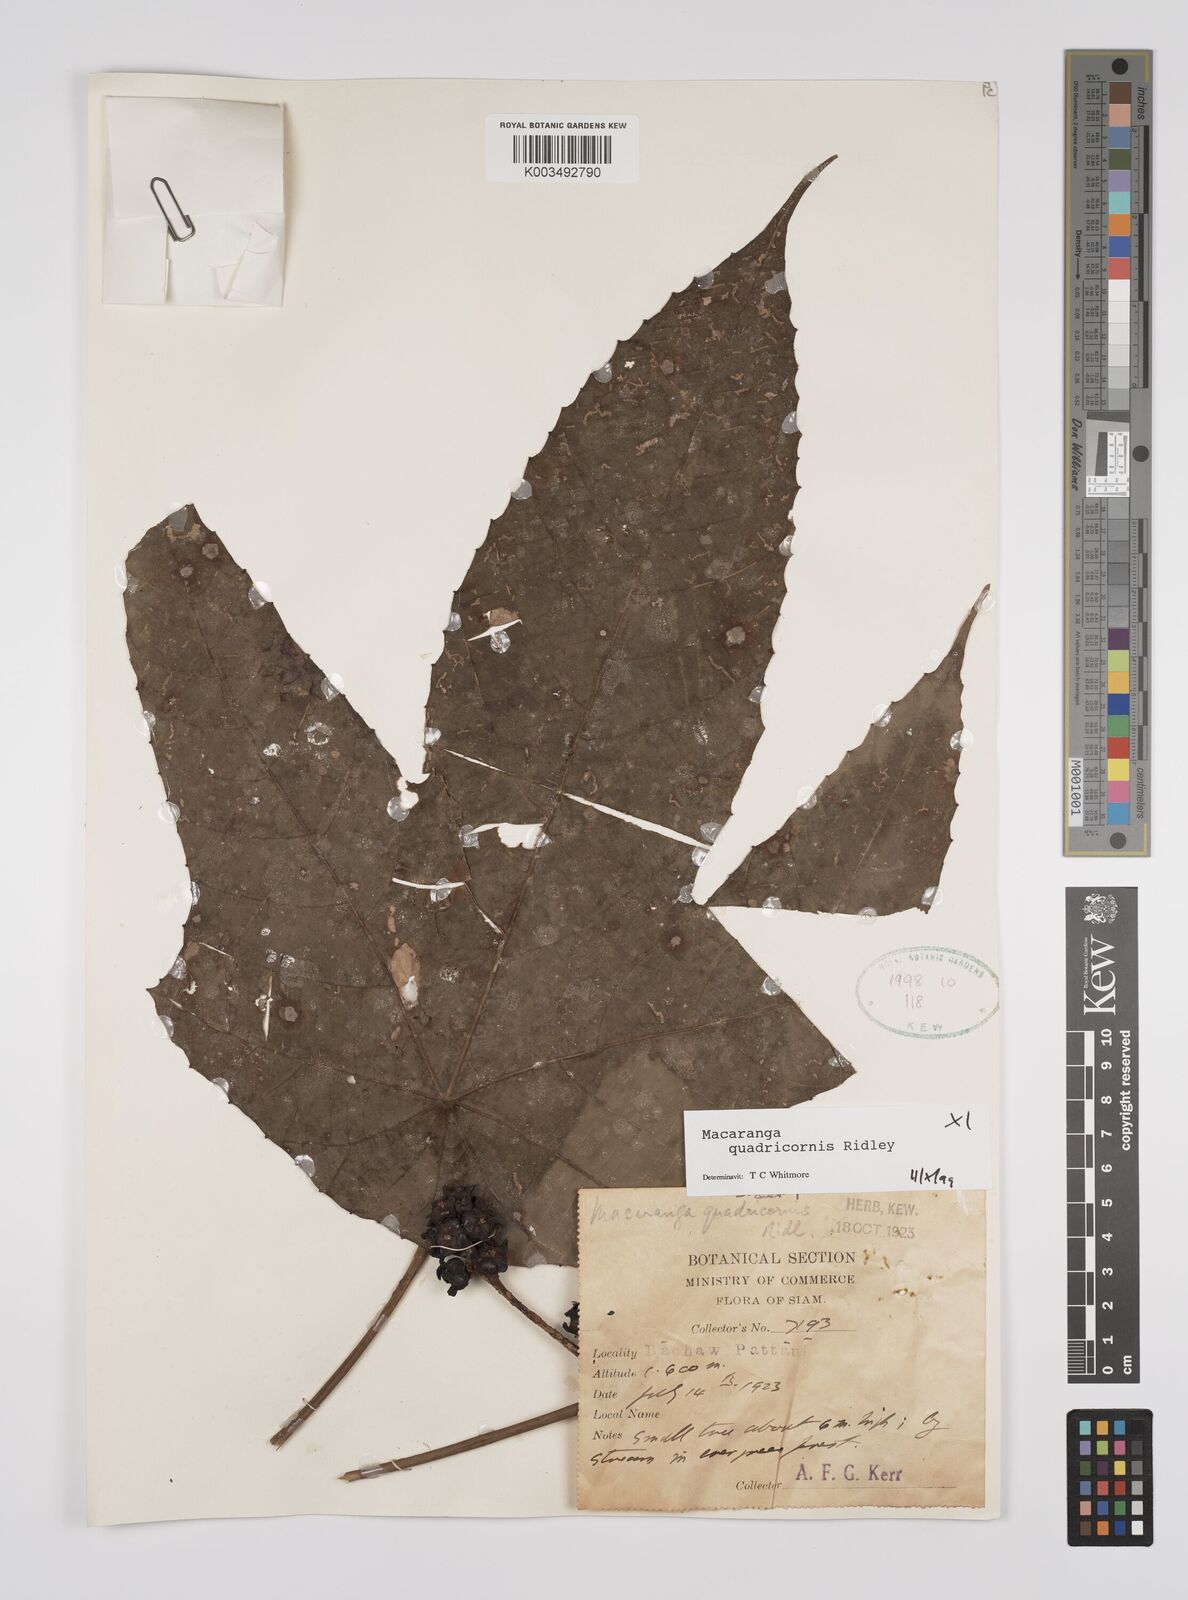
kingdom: Plantae
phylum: Tracheophyta
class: Magnoliopsida
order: Malpighiales
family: Euphorbiaceae
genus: Macaranga
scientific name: Macaranga triloba
